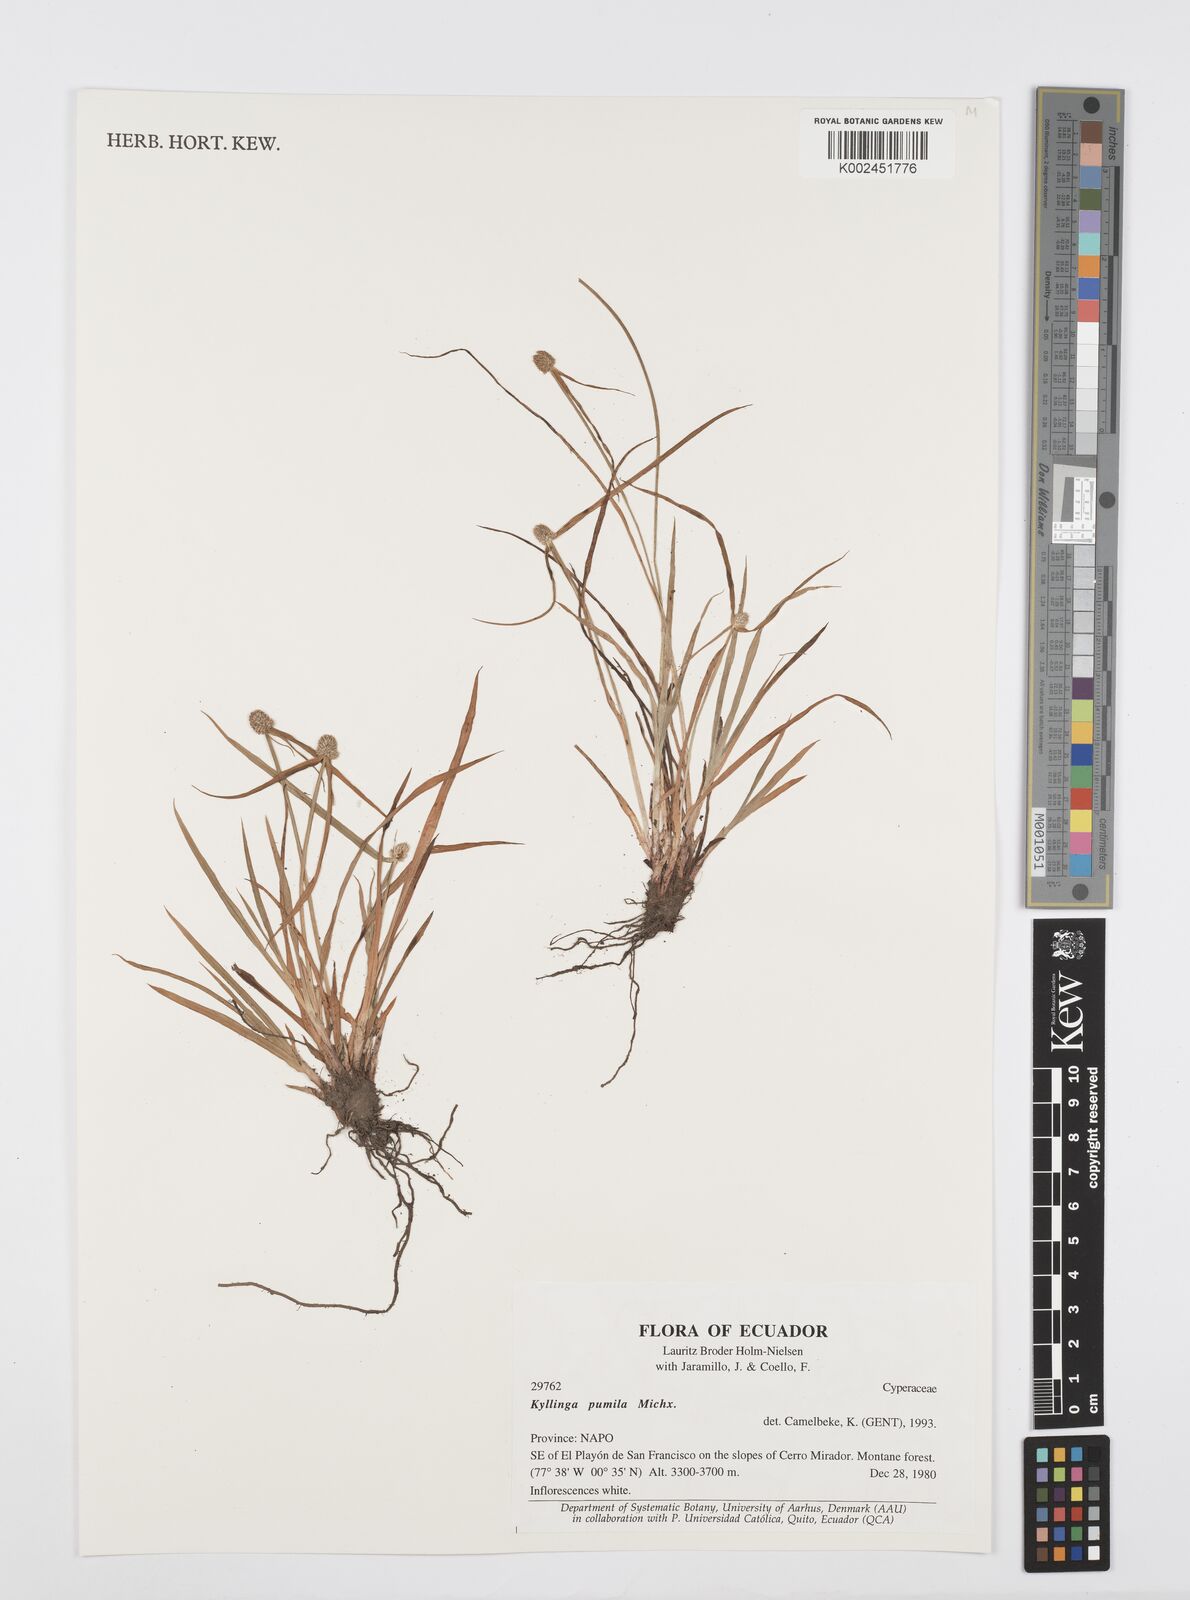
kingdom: Plantae
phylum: Tracheophyta
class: Liliopsida
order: Poales
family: Cyperaceae
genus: Cyperus
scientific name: Cyperus
